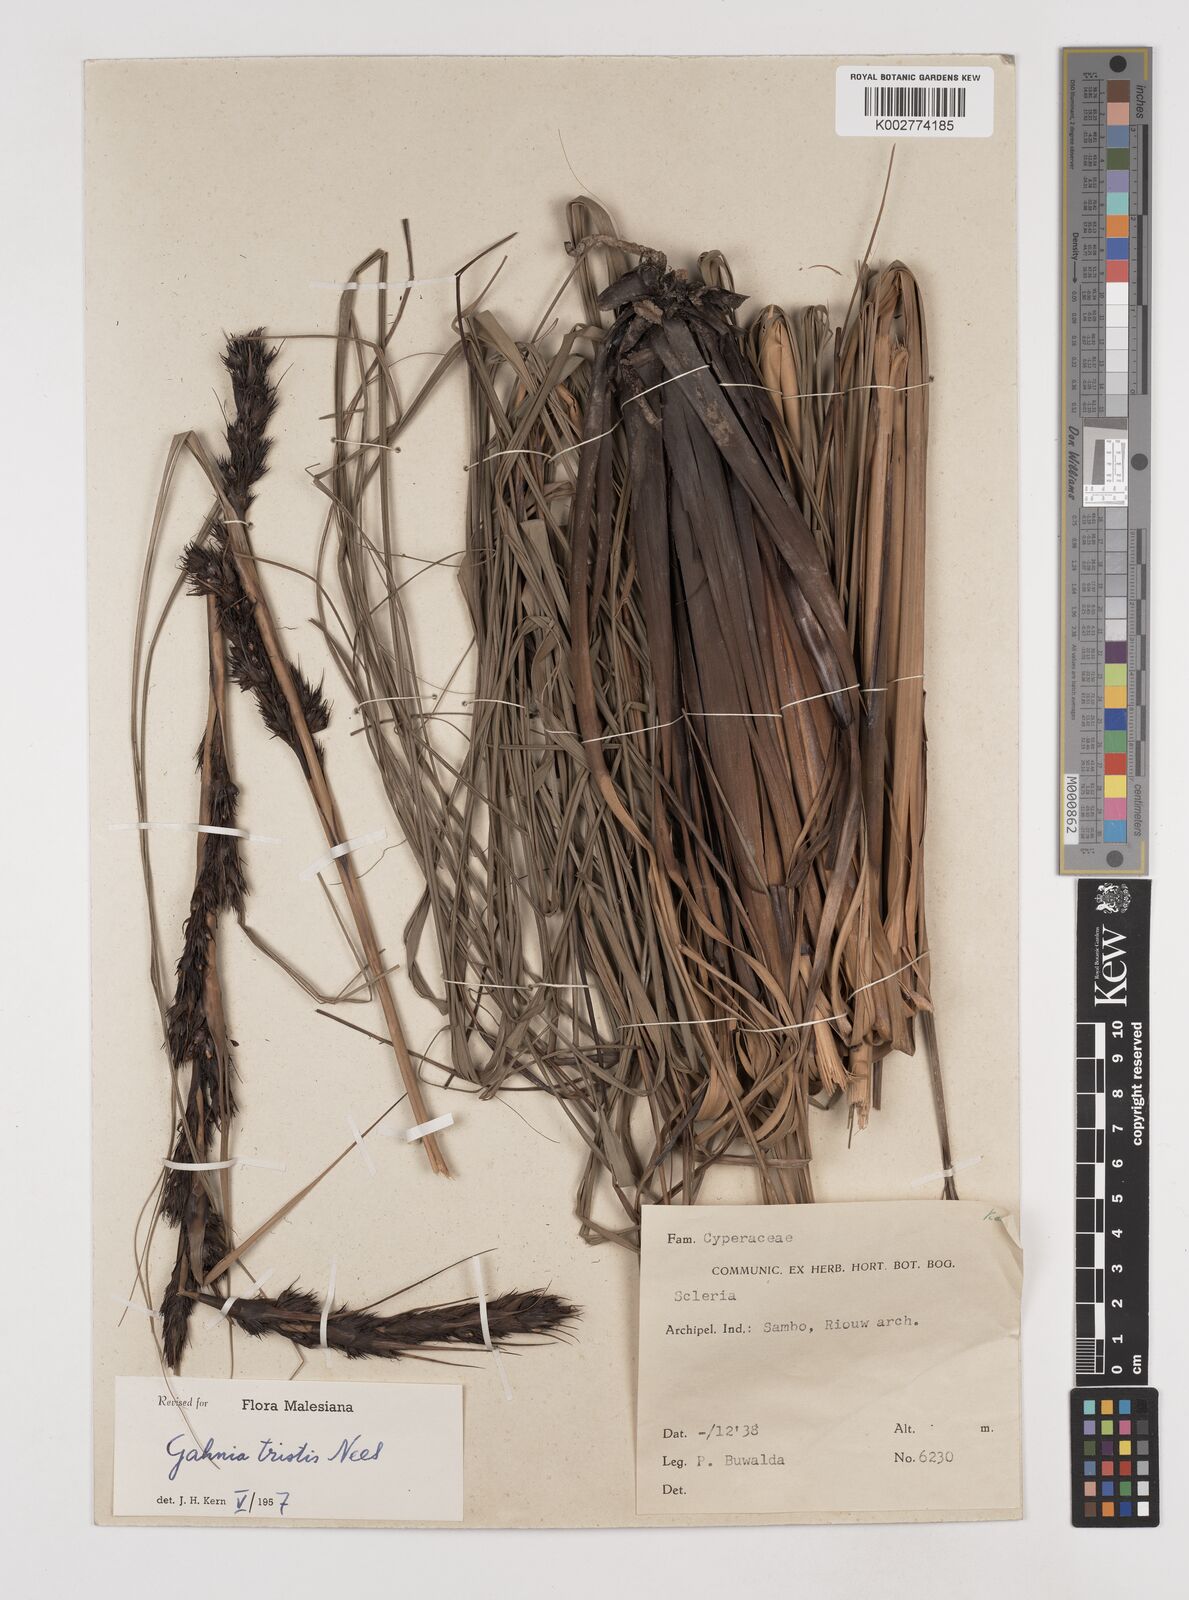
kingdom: Plantae
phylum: Tracheophyta
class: Liliopsida
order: Poales
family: Cyperaceae
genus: Gahnia
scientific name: Gahnia tristis
